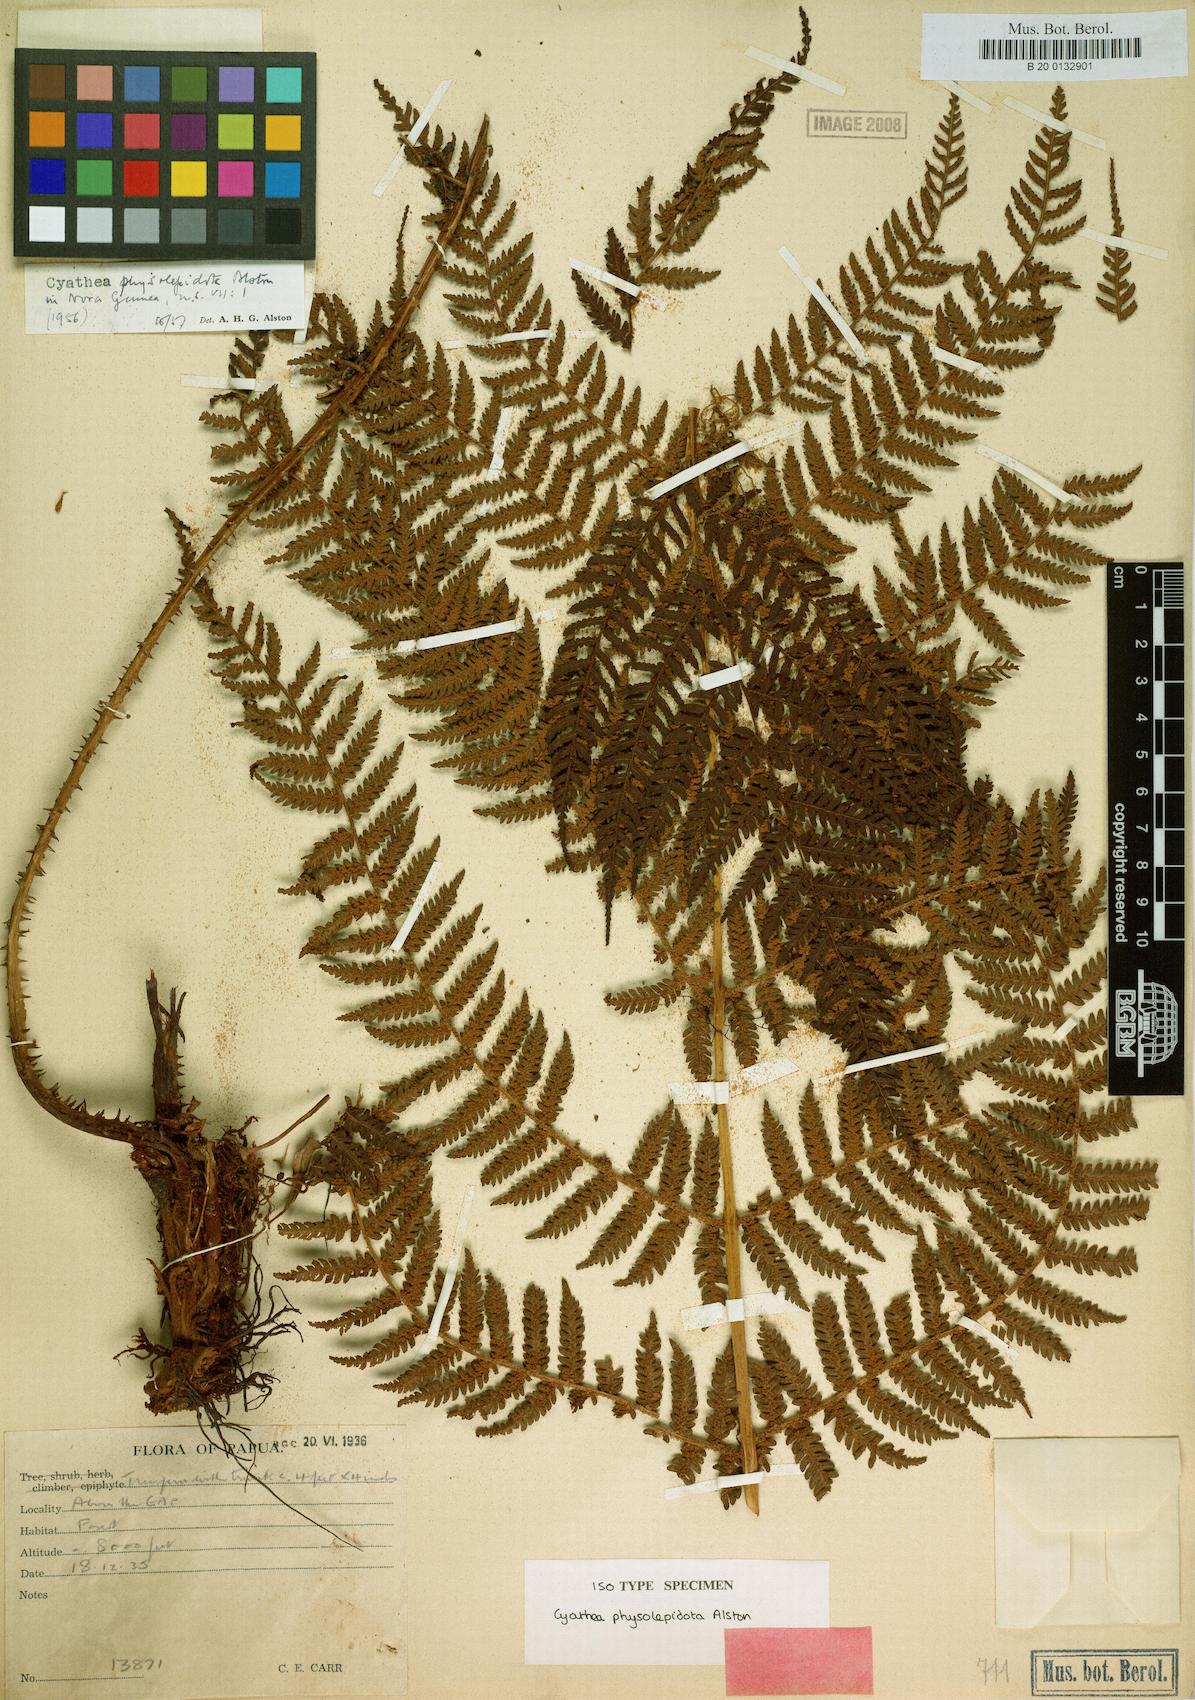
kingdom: Plantae
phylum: Tracheophyta
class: Polypodiopsida
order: Cyatheales
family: Cyatheaceae
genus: Alsophila
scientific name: Alsophila physolepidota
